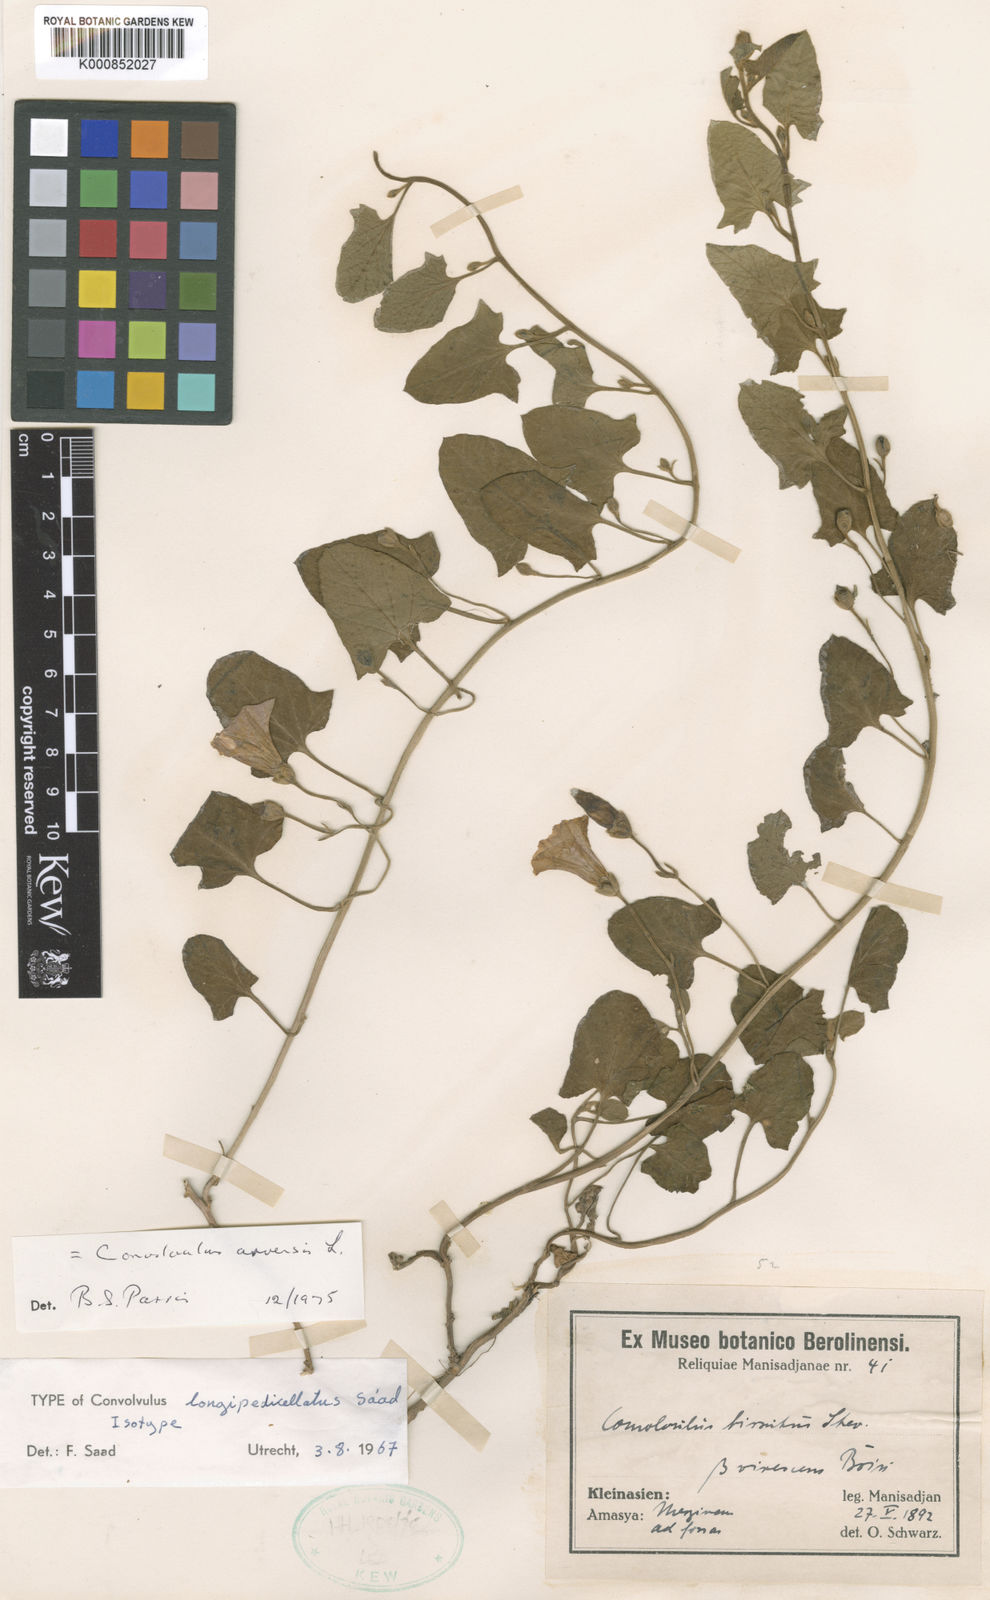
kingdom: Plantae
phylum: Tracheophyta
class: Magnoliopsida
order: Solanales
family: Convolvulaceae
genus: Convolvulus
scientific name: Convolvulus arvensis
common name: Field bindweed
